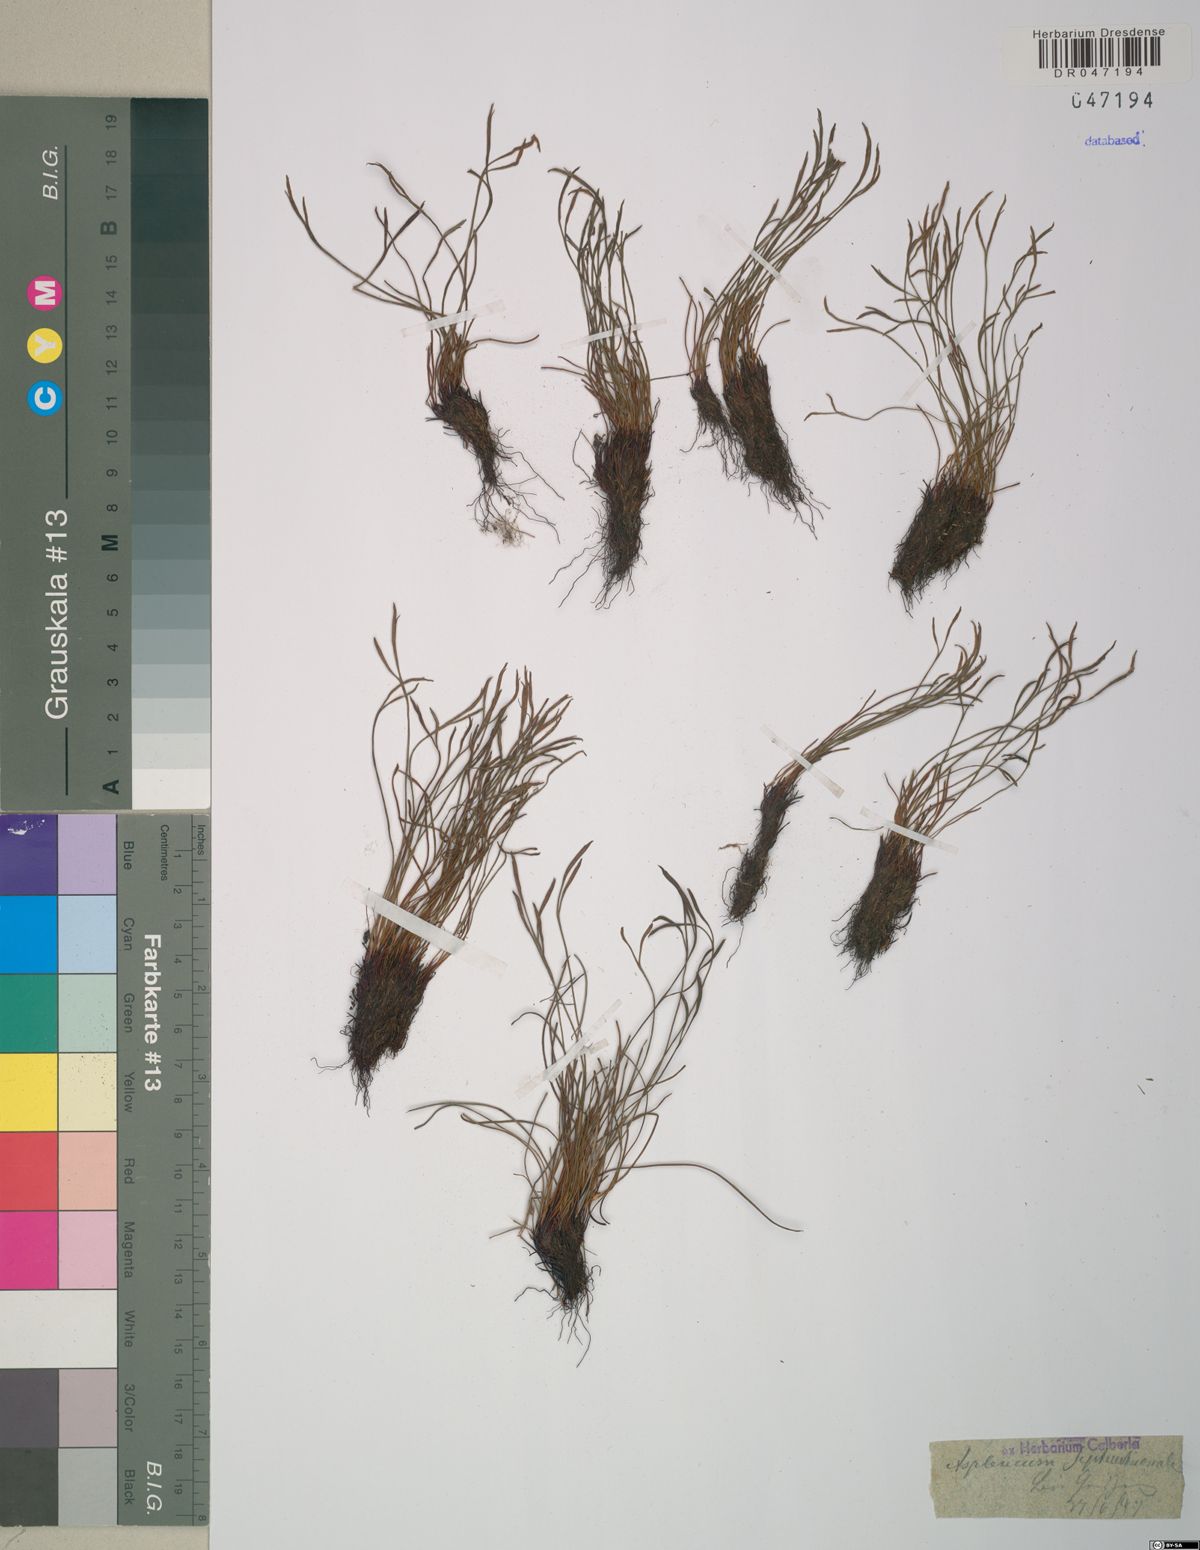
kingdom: Plantae
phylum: Tracheophyta
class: Polypodiopsida
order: Polypodiales
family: Aspleniaceae
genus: Asplenium
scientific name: Asplenium septentrionale
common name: Forked spleenwort
